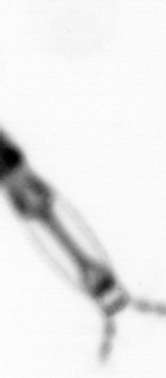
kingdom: Animalia
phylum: Arthropoda
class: Copepoda
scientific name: Copepoda
